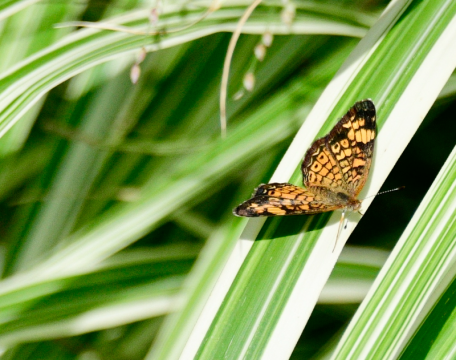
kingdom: Animalia
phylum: Arthropoda
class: Insecta
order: Lepidoptera
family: Nymphalidae
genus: Phyciodes
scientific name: Phyciodes tharos
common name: Pearl Crescent
